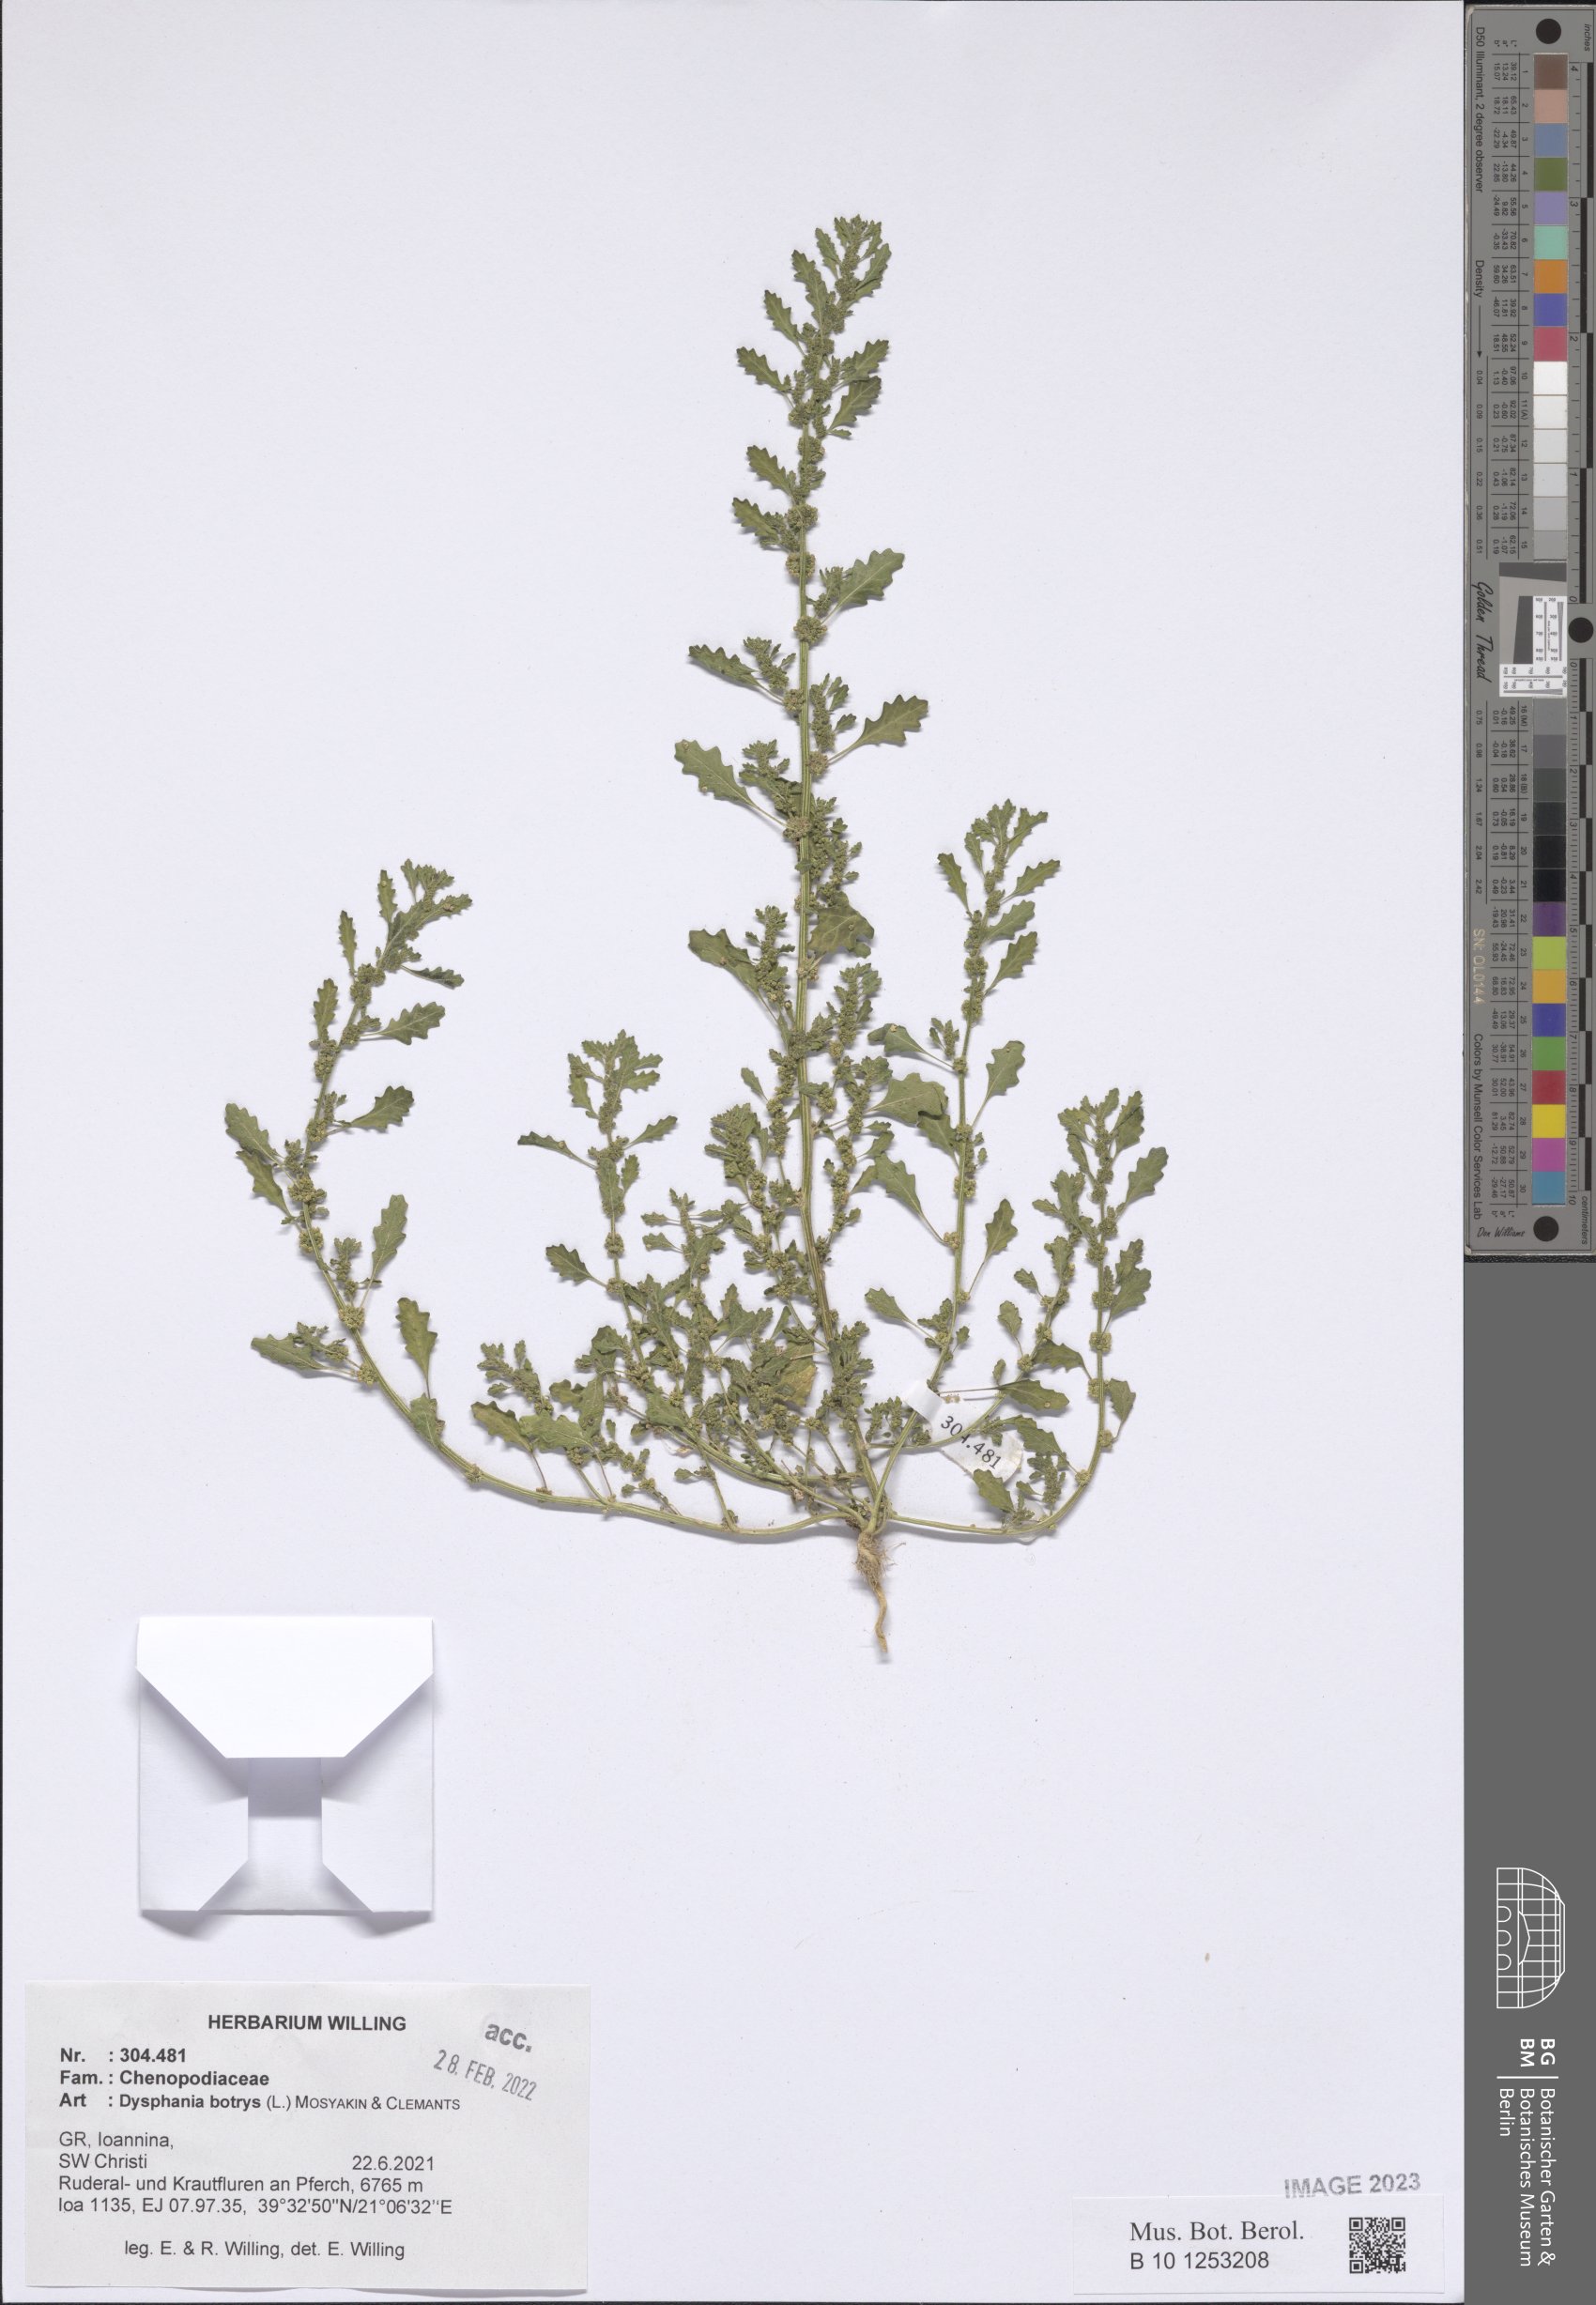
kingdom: Plantae
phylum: Tracheophyta
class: Magnoliopsida
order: Caryophyllales
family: Amaranthaceae
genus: Dysphania
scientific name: Dysphania botrys
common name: Feather-geranium
